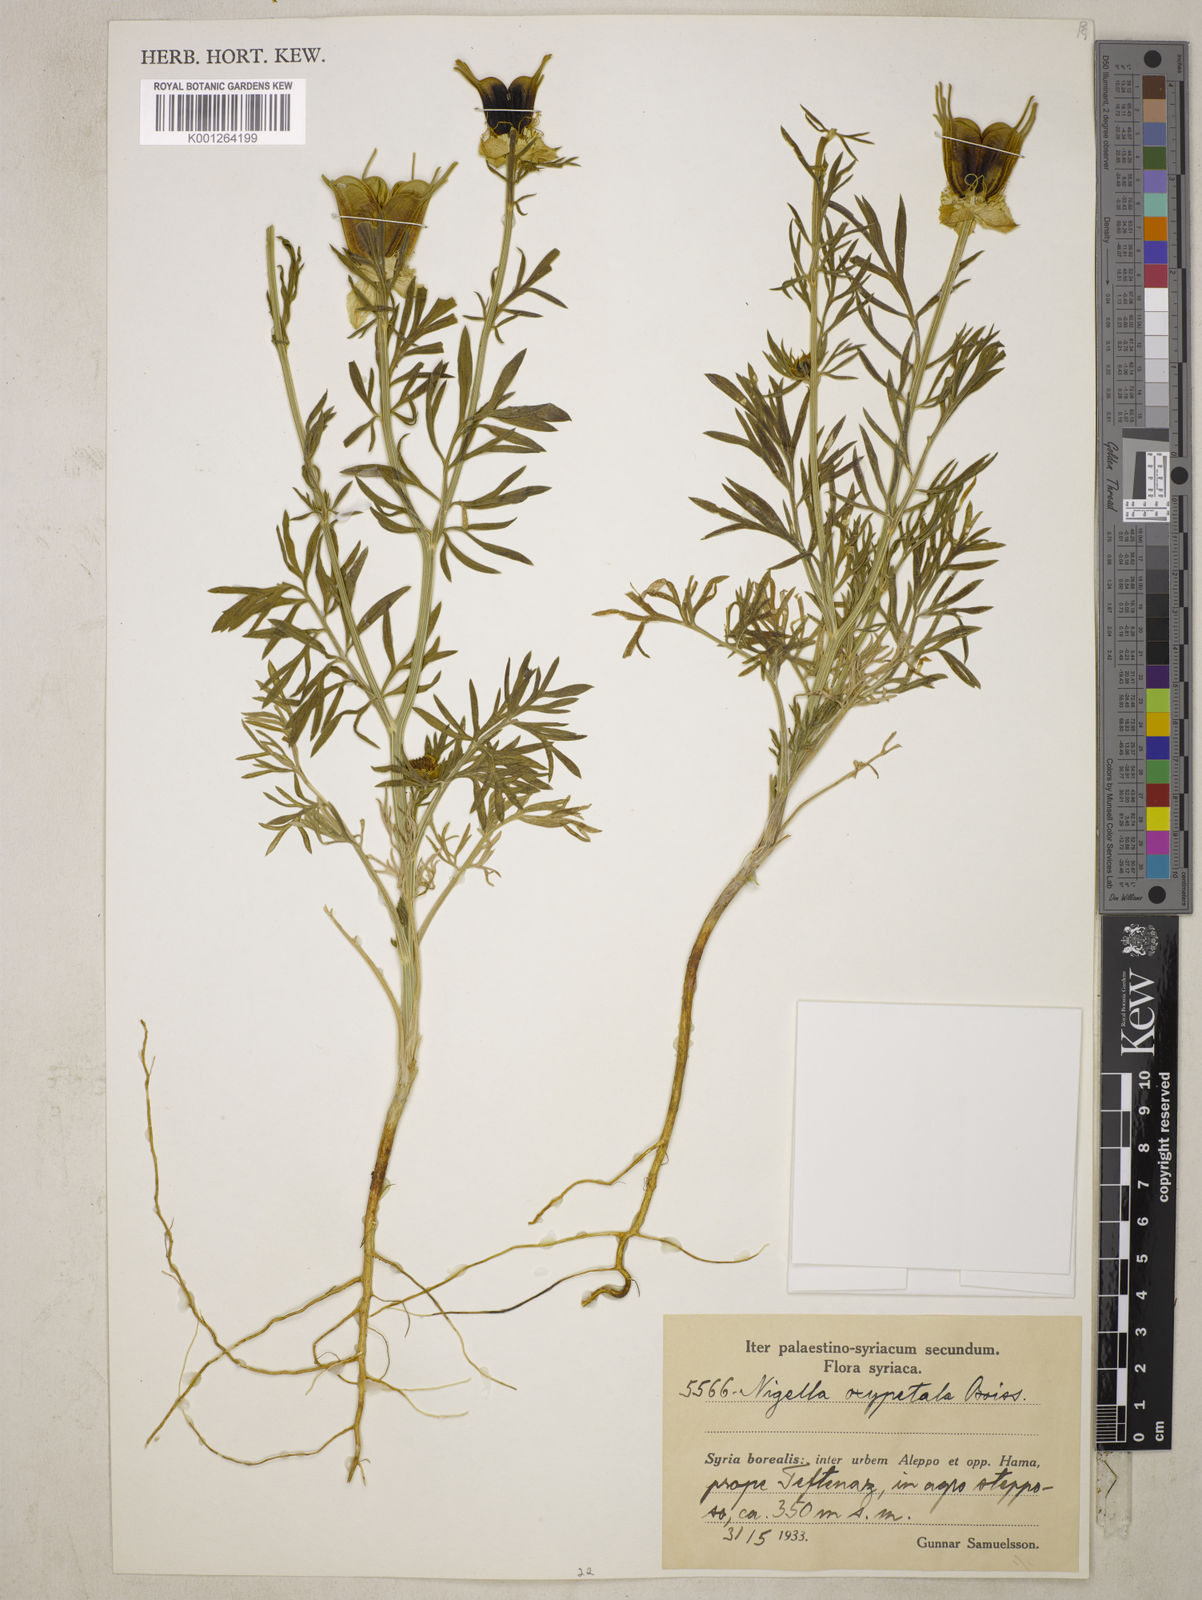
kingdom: Plantae
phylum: Tracheophyta
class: Magnoliopsida
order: Ranunculales
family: Ranunculaceae
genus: Nigella
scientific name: Nigella oxypetala
